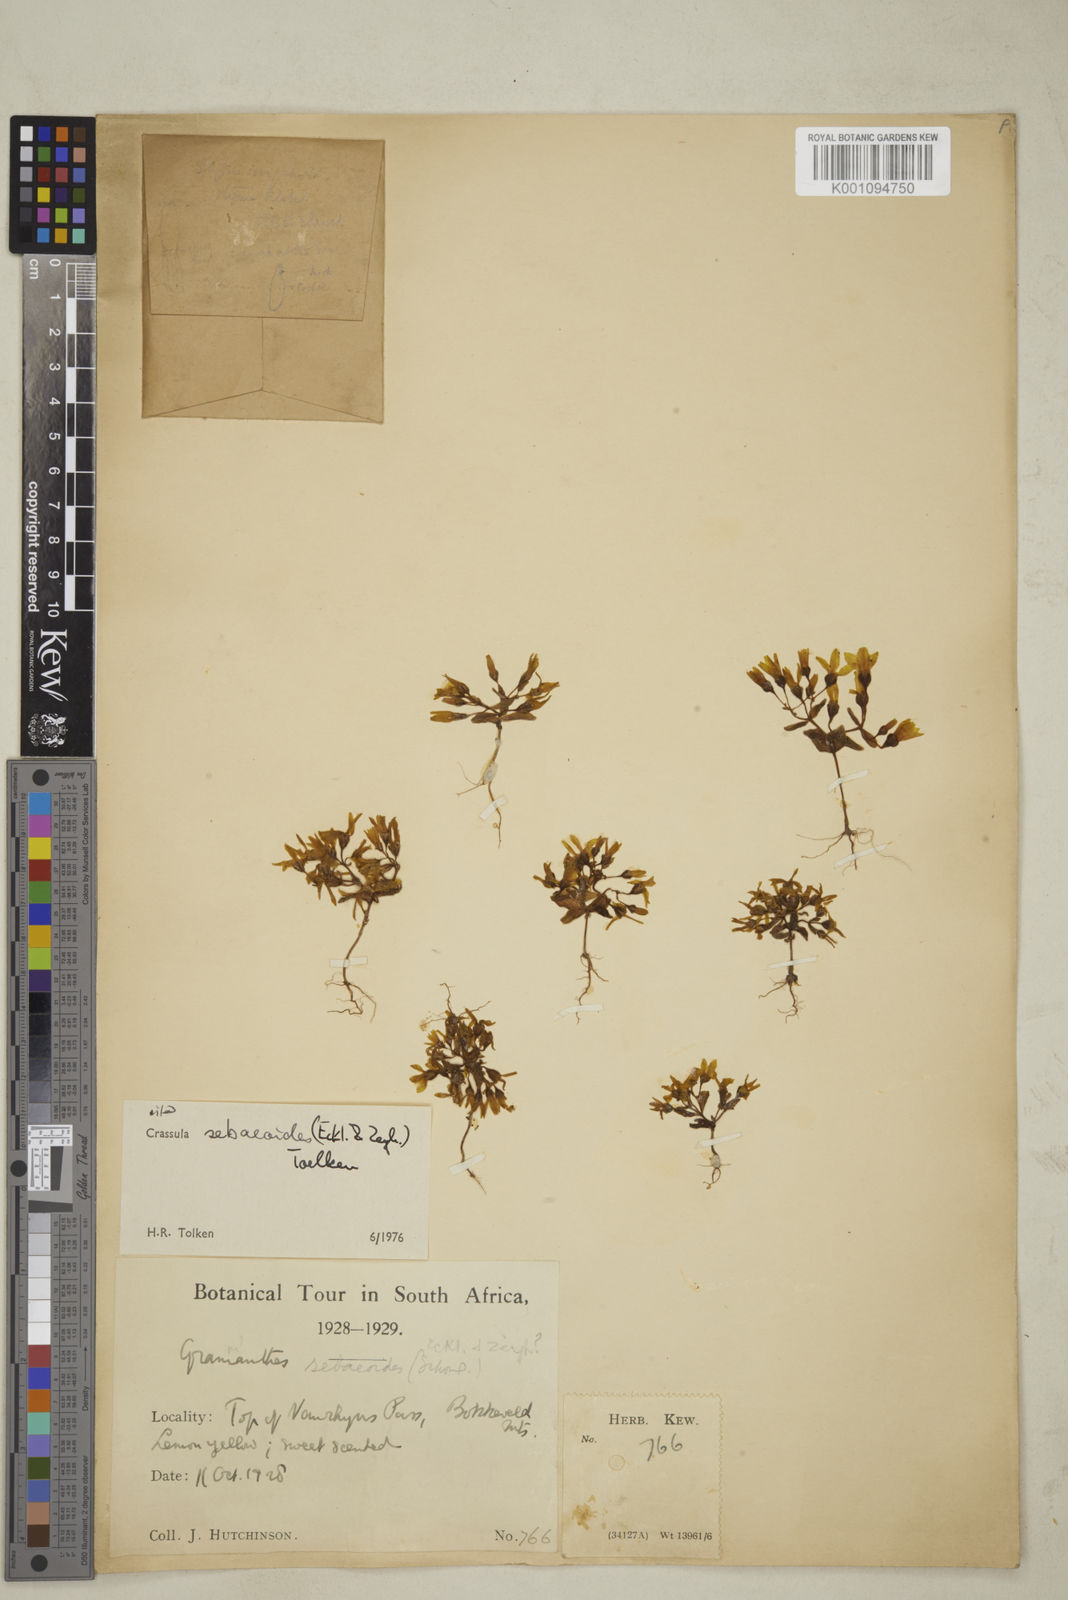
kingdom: Plantae
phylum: Tracheophyta
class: Magnoliopsida
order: Saxifragales
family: Crassulaceae
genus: Crassula
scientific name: Crassula sebaeoides
